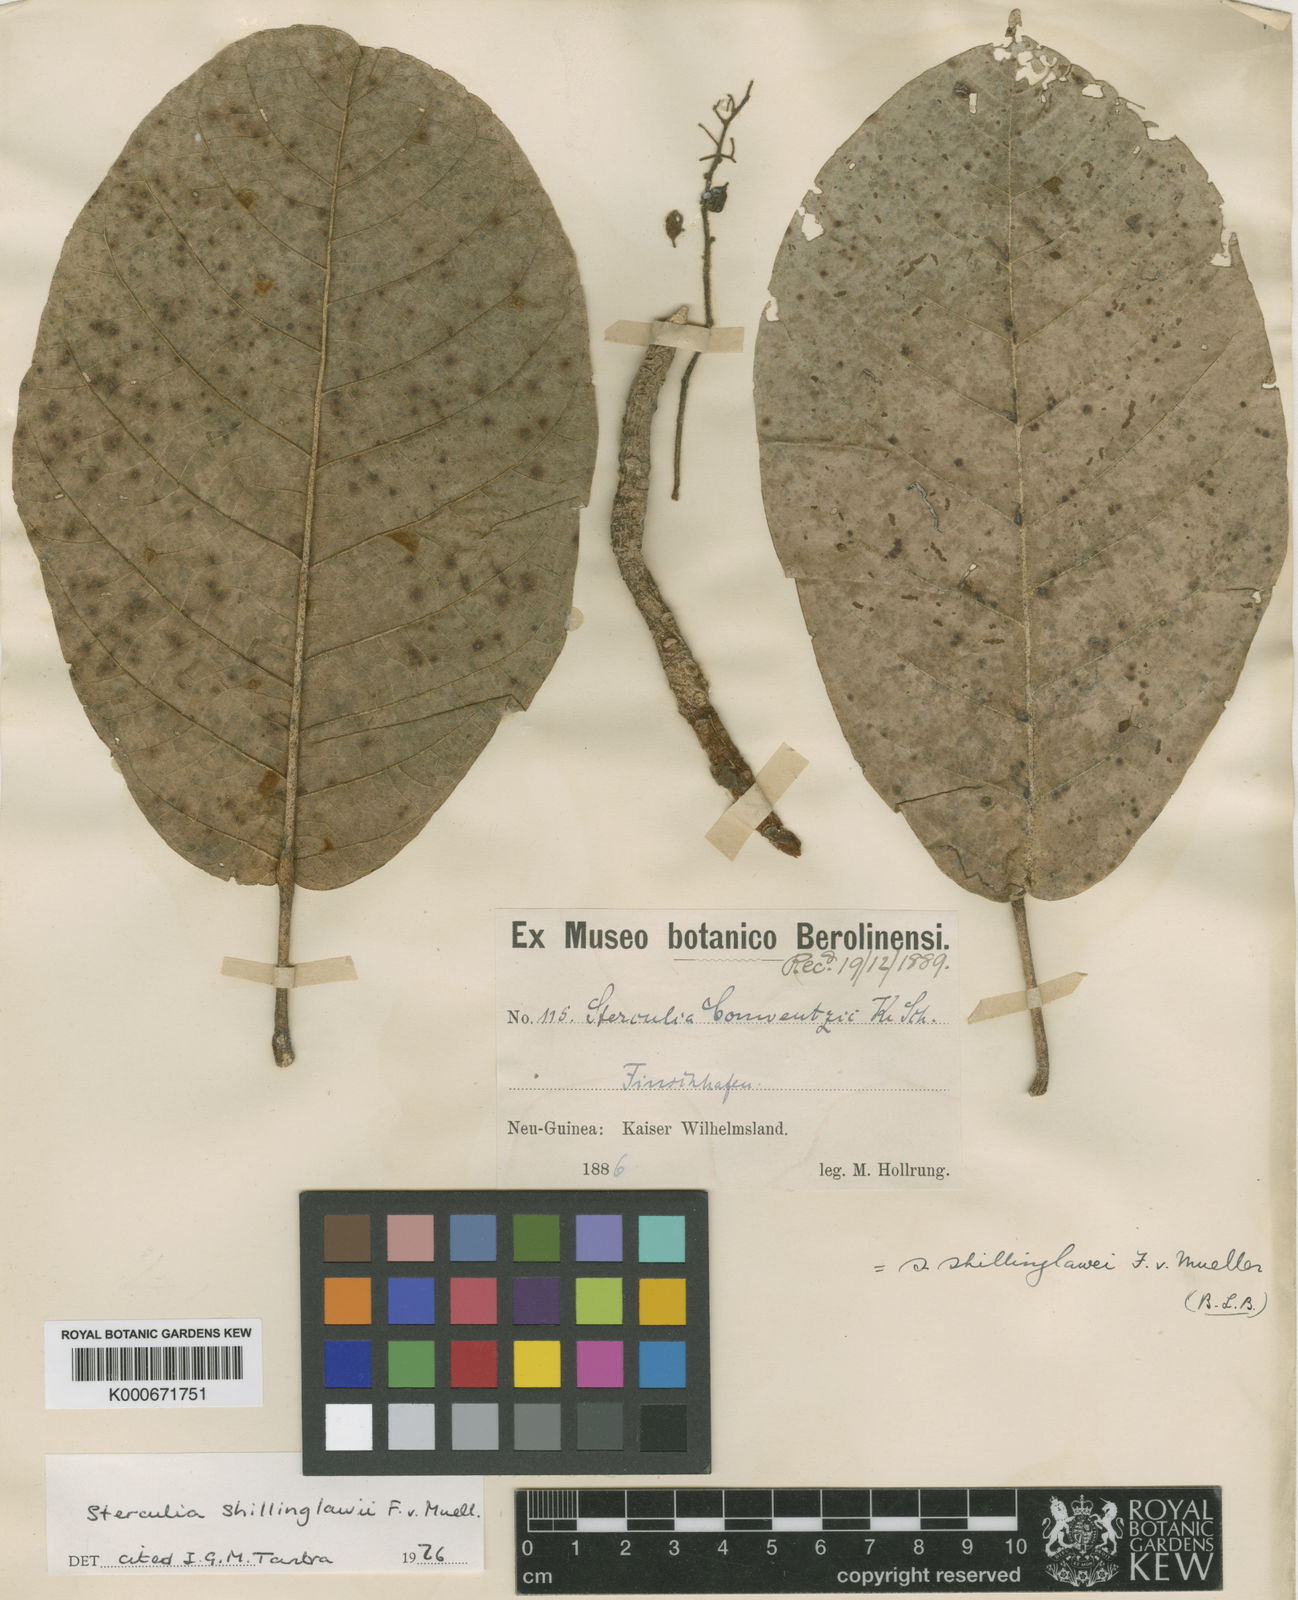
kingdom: Plantae
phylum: Tracheophyta
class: Magnoliopsida
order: Malvales
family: Malvaceae
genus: Sterculia
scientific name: Sterculia shillinglawii
